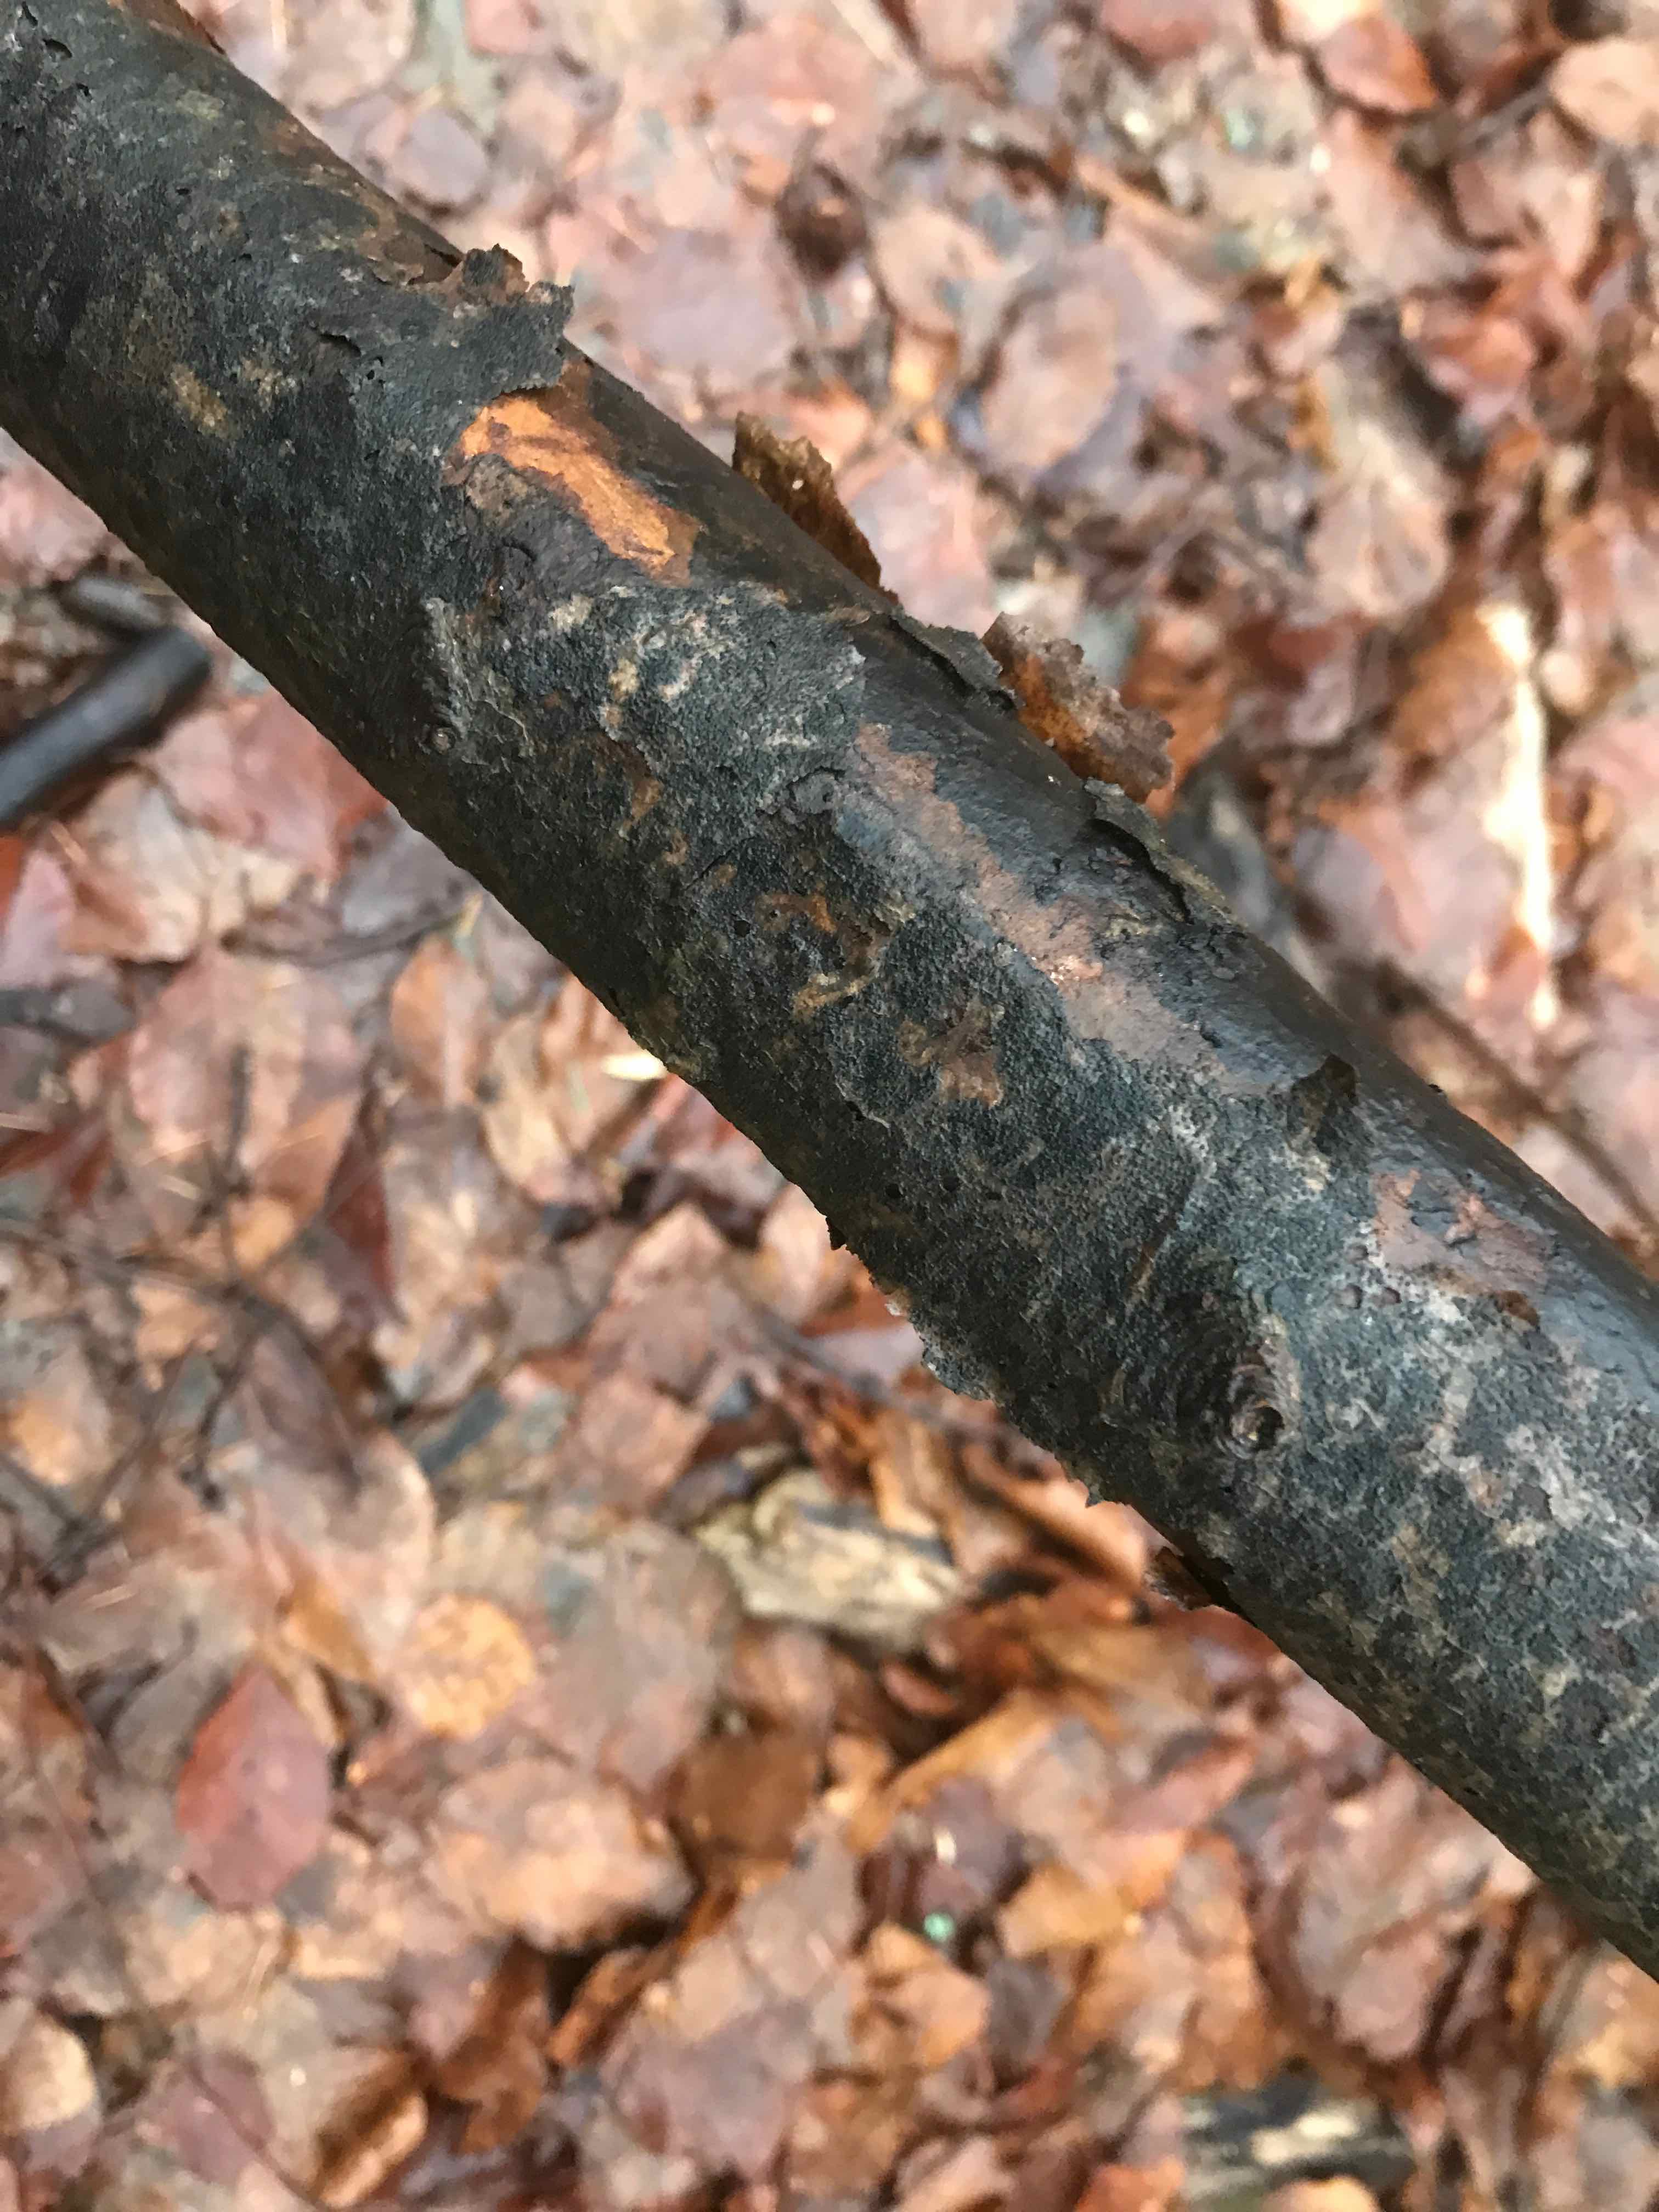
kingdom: Fungi
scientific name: Fungi
